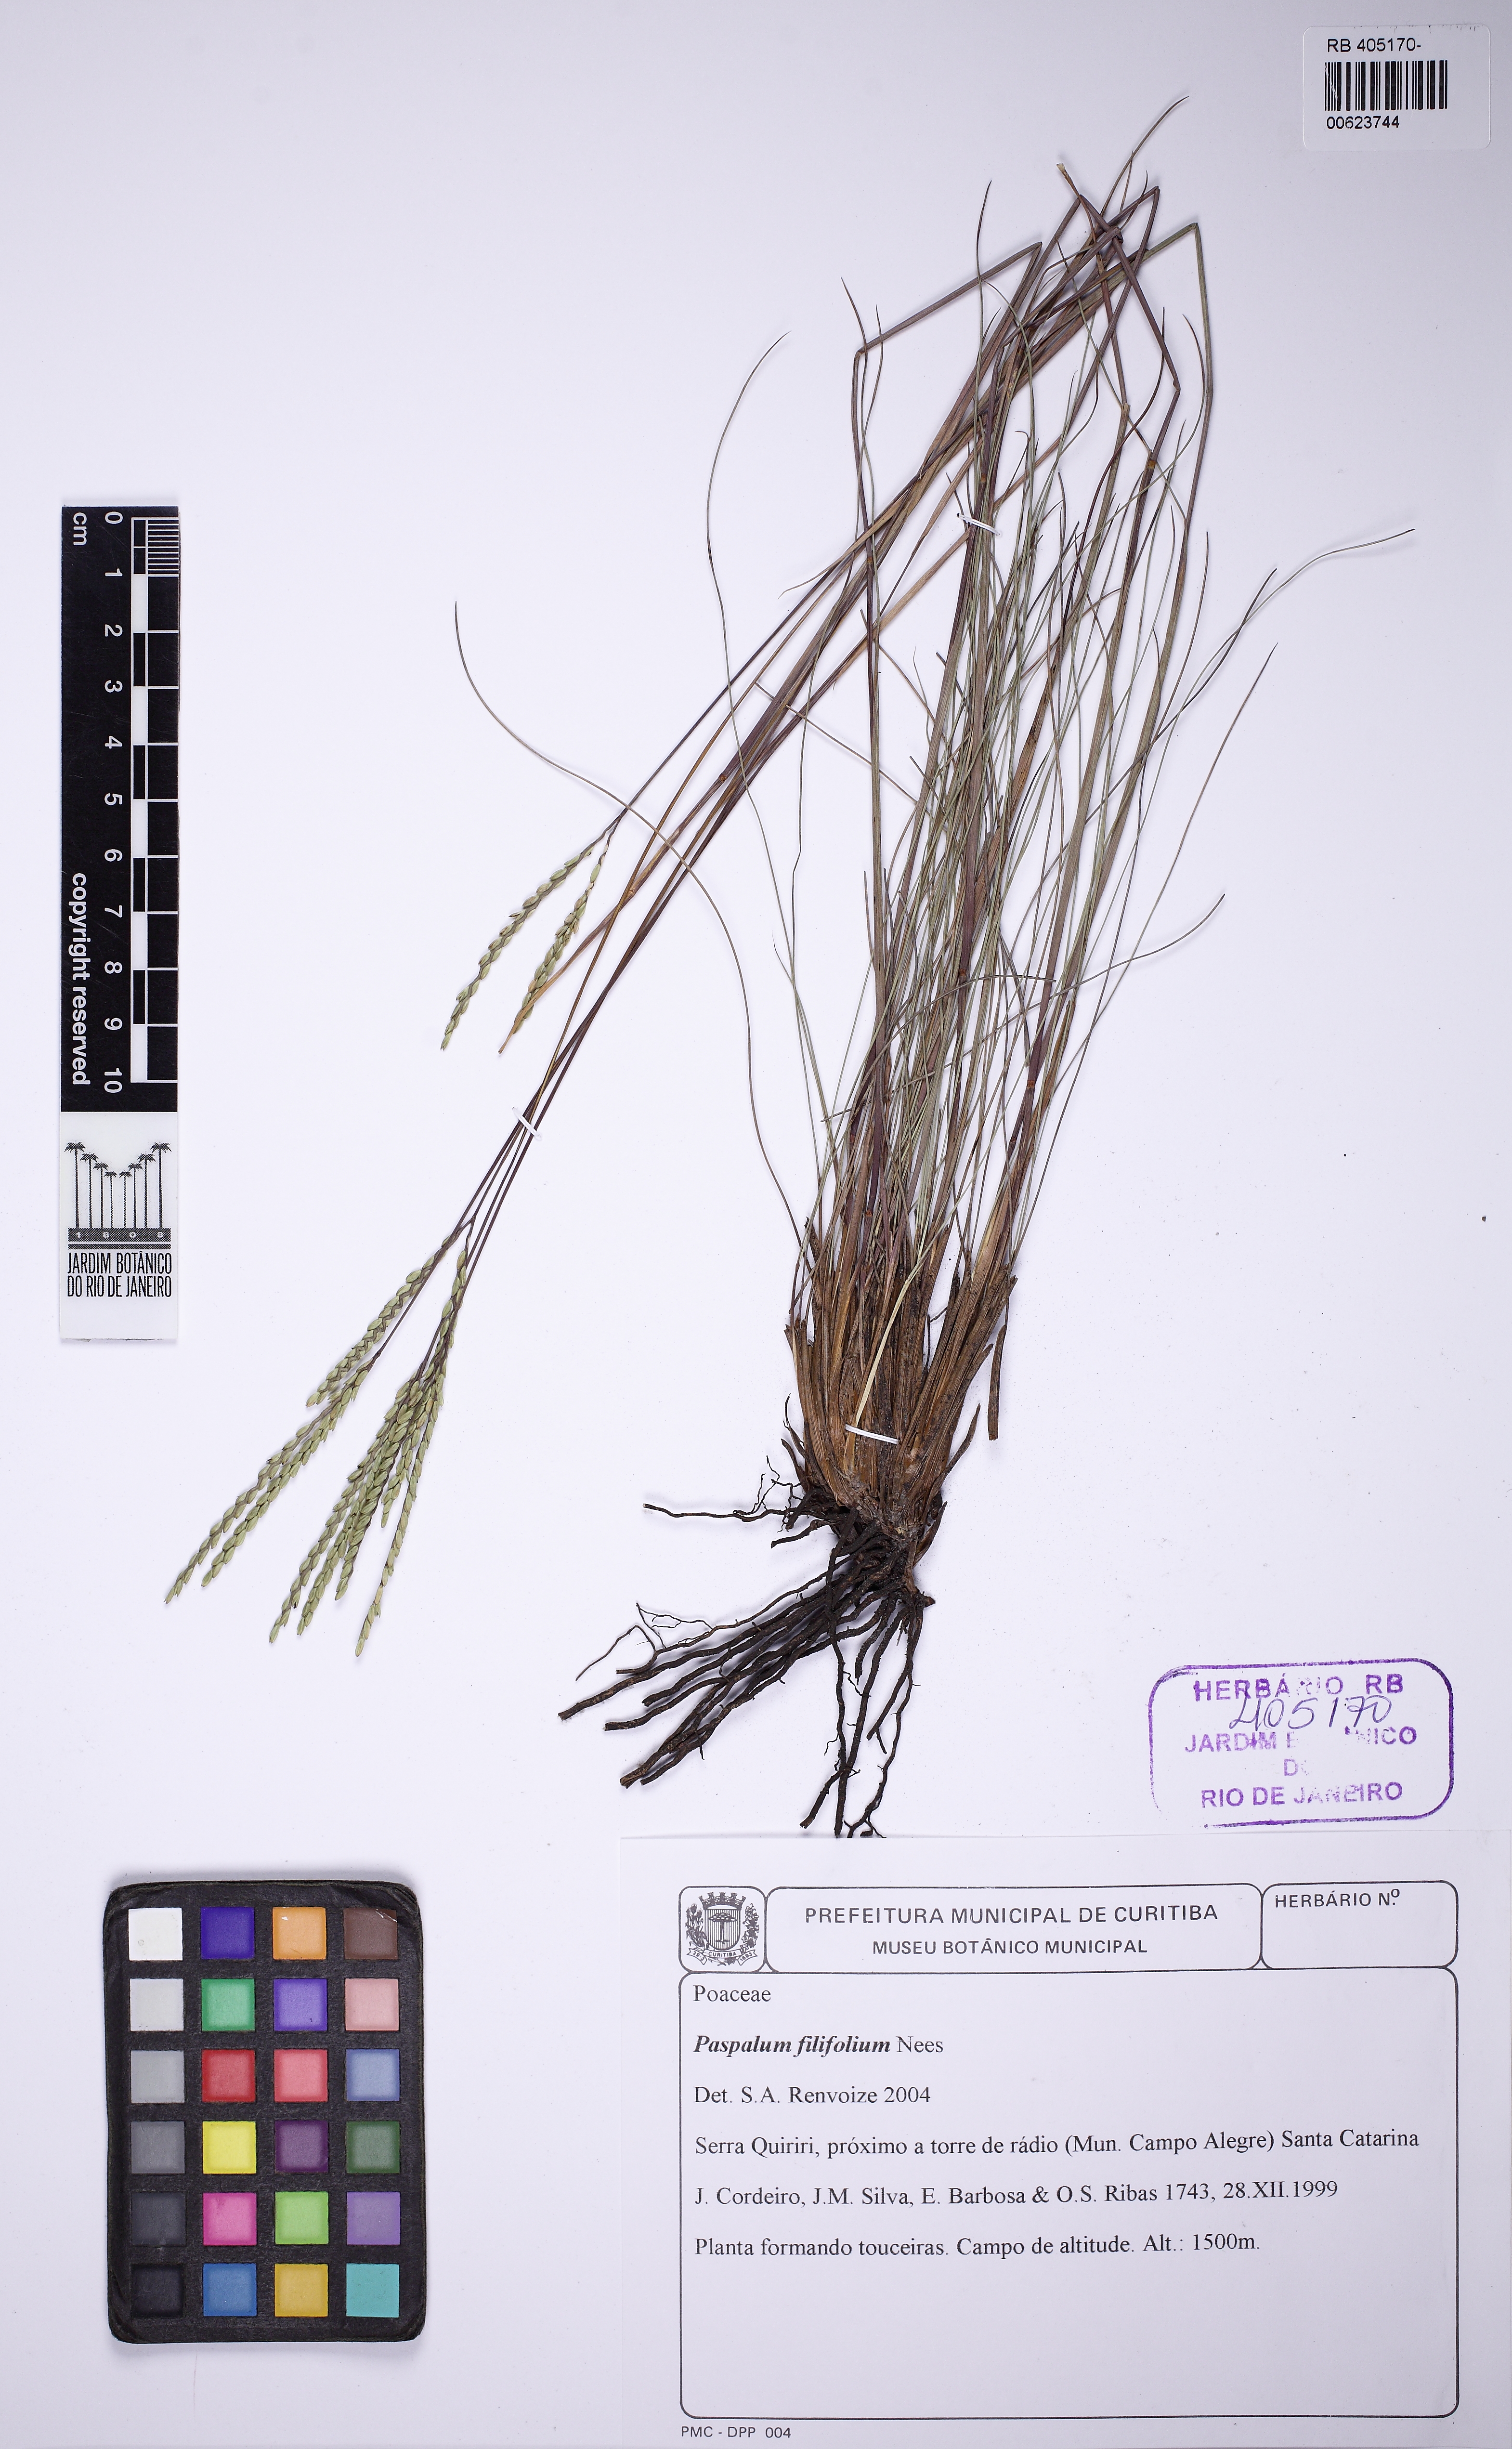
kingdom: Plantae
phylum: Tracheophyta
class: Liliopsida
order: Poales
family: Poaceae
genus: Paspalum
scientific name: Paspalum filifolium
